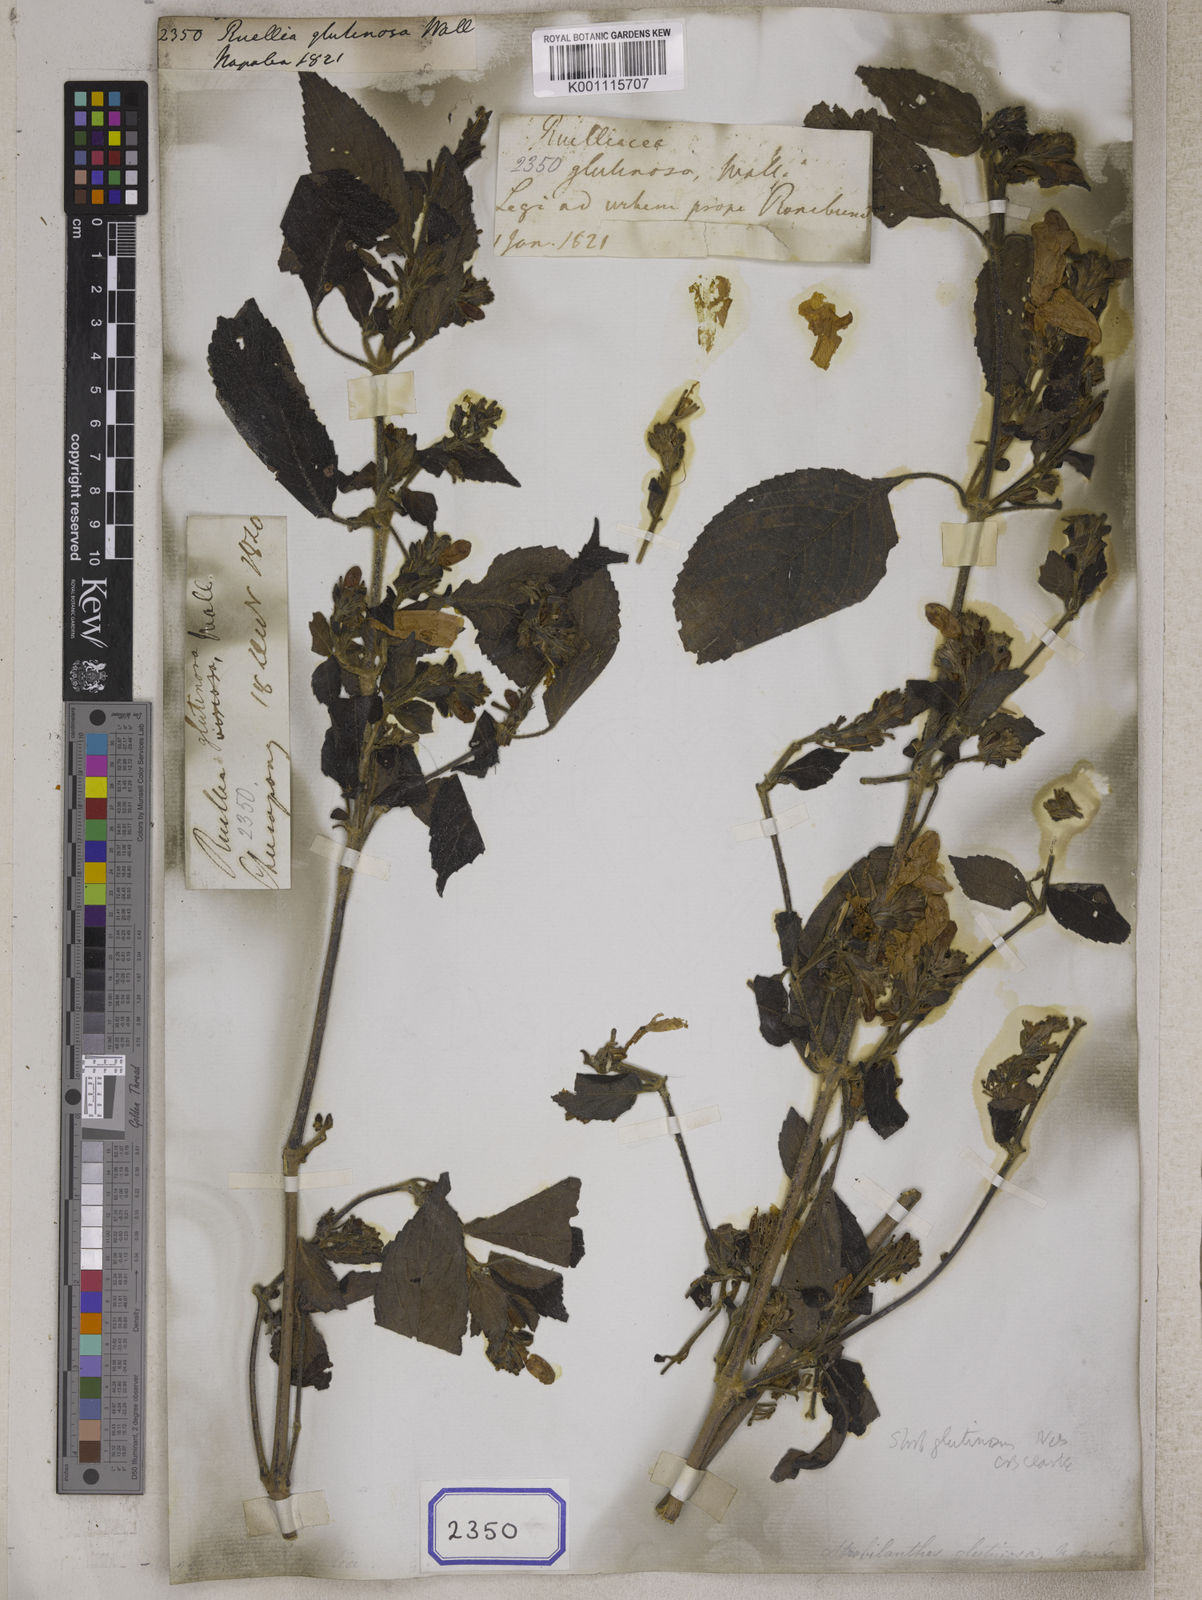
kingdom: Plantae
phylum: Tracheophyta
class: Magnoliopsida
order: Lamiales
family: Acanthaceae
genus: Strobilanthes
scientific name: Strobilanthes glutinosa
